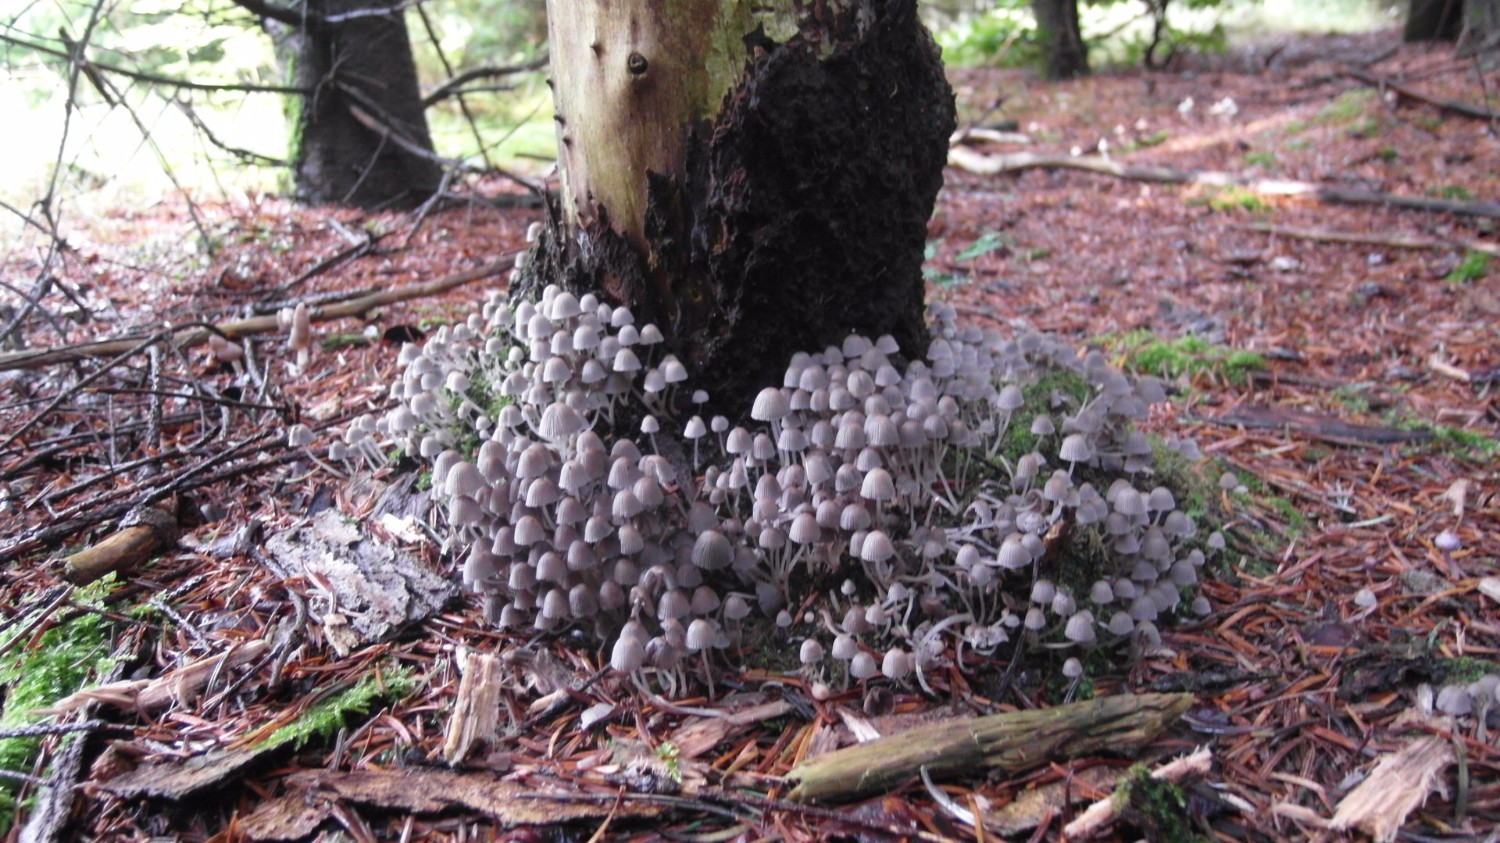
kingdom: Fungi
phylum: Basidiomycota
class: Agaricomycetes
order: Agaricales
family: Psathyrellaceae
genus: Coprinellus
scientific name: Coprinellus disseminatus
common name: bredsået blækhat
